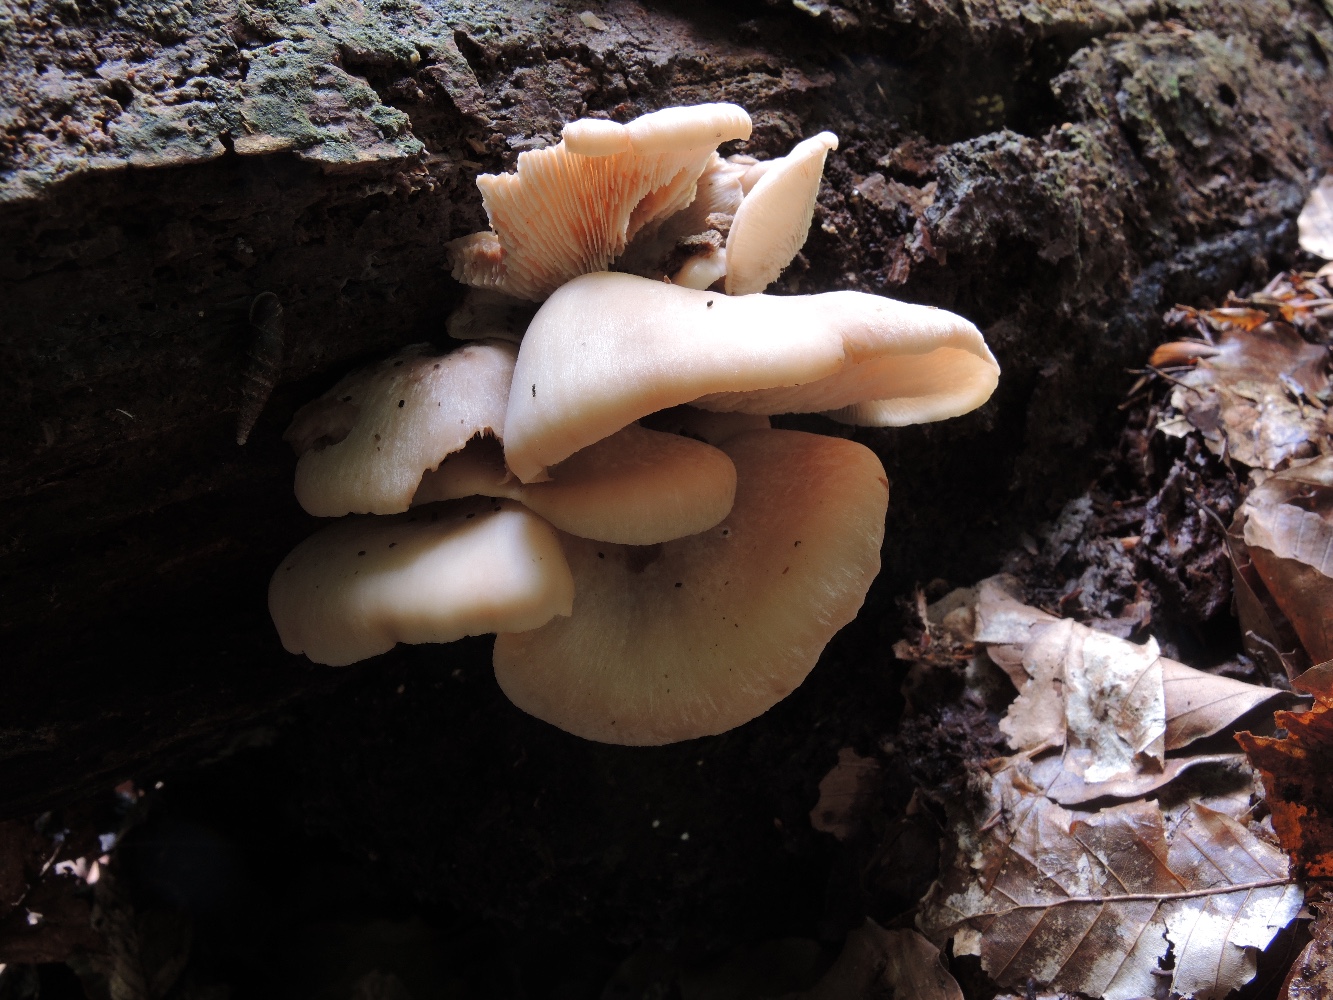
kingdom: Fungi
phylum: Basidiomycota
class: Agaricomycetes
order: Russulales
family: Auriscalpiaceae
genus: Lentinellus
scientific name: Lentinellus ursinus
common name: børstehåret savbladhat
